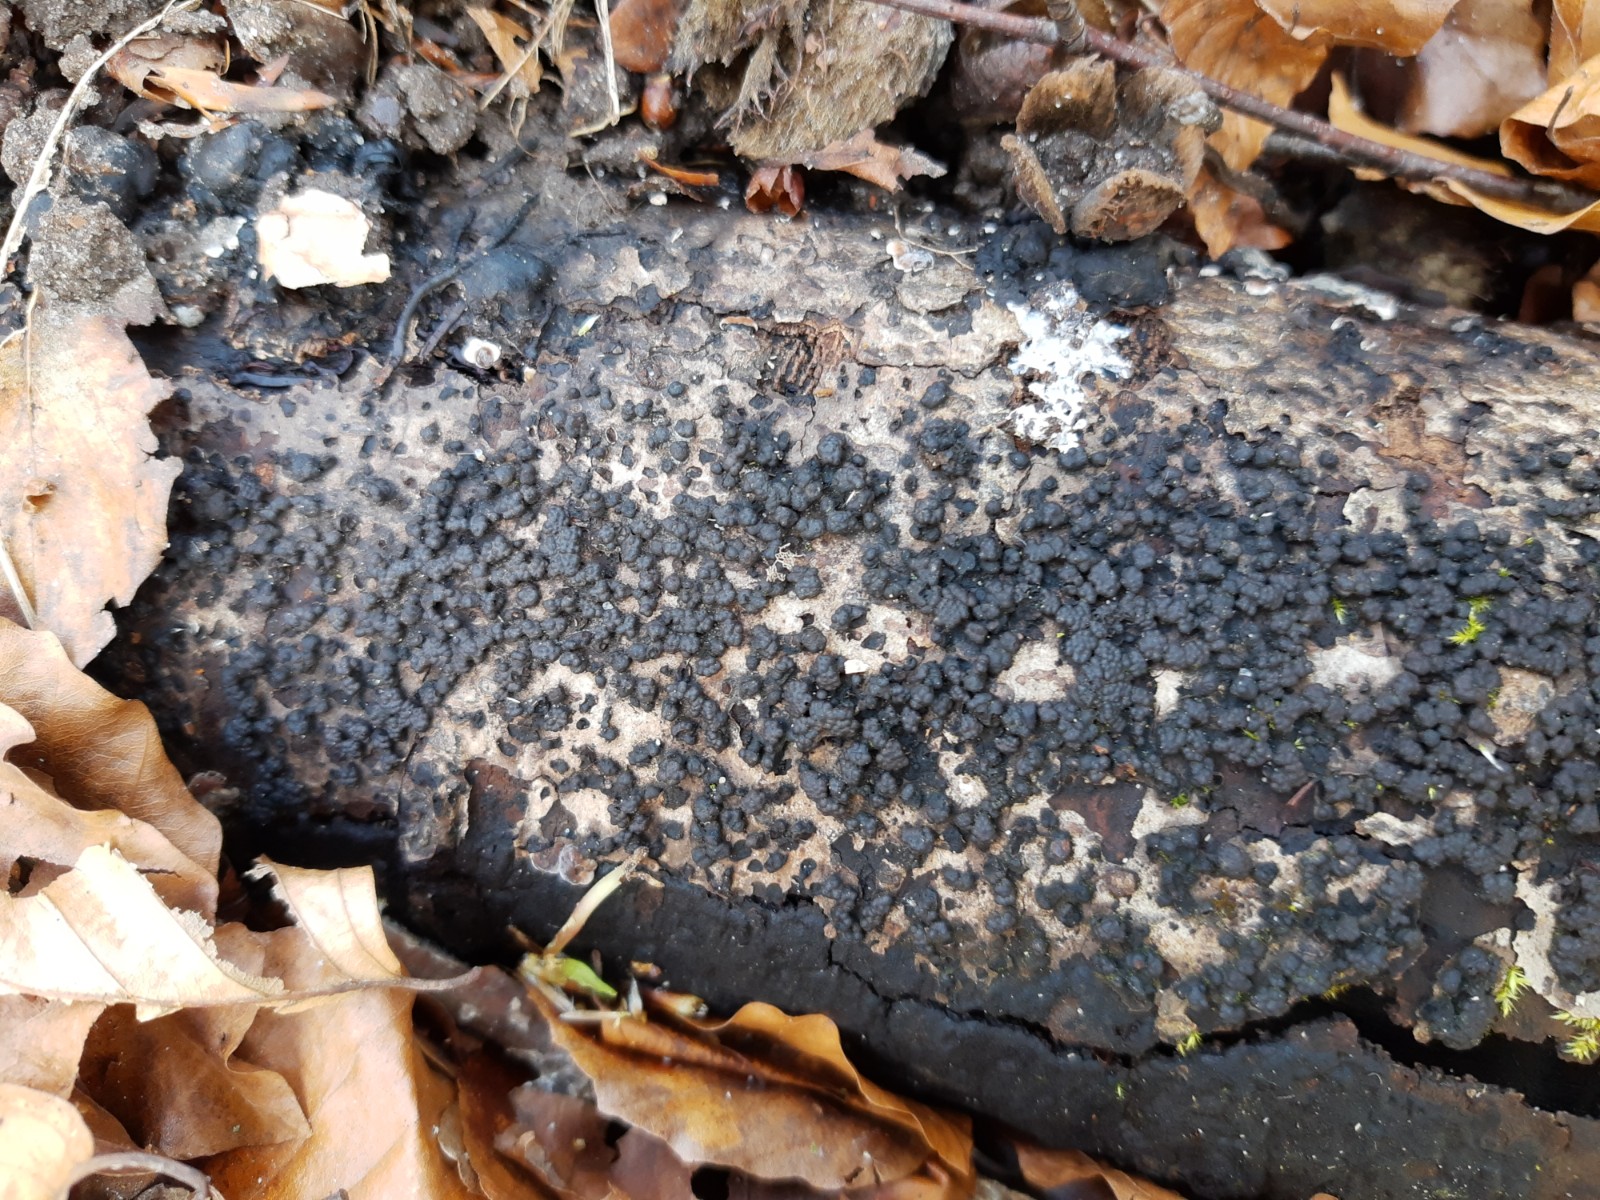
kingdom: Fungi
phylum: Ascomycota
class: Sordariomycetes
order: Xylariales
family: Hypoxylaceae
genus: Jackrogersella
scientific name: Jackrogersella cohaerens
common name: sammenflydende kulbær
